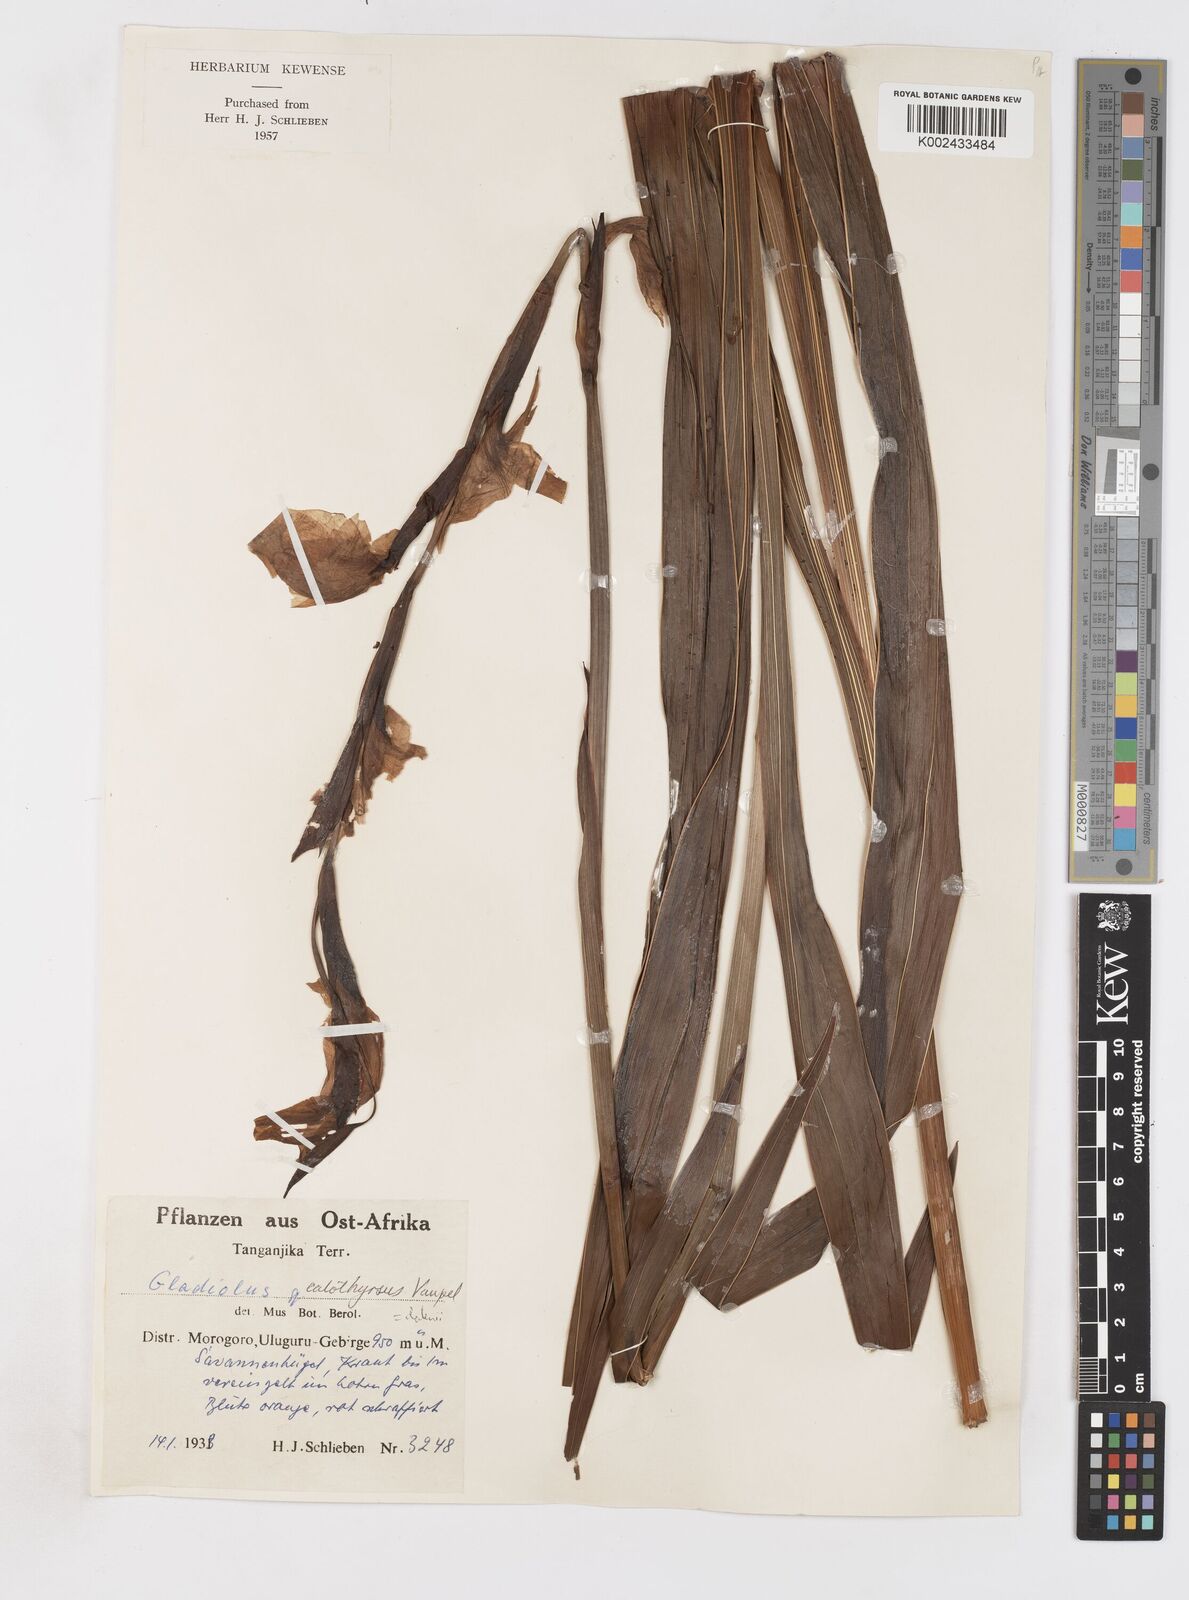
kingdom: Plantae
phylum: Tracheophyta
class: Liliopsida
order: Asparagales
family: Iridaceae
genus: Gladiolus
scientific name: Gladiolus dalenii
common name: Cornflag
